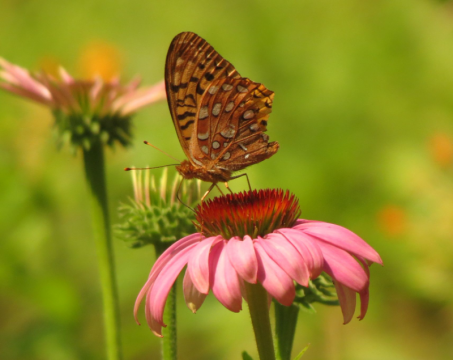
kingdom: Animalia
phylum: Arthropoda
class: Insecta
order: Lepidoptera
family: Nymphalidae
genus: Speyeria
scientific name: Speyeria cybele
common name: Great Spangled Fritillary
